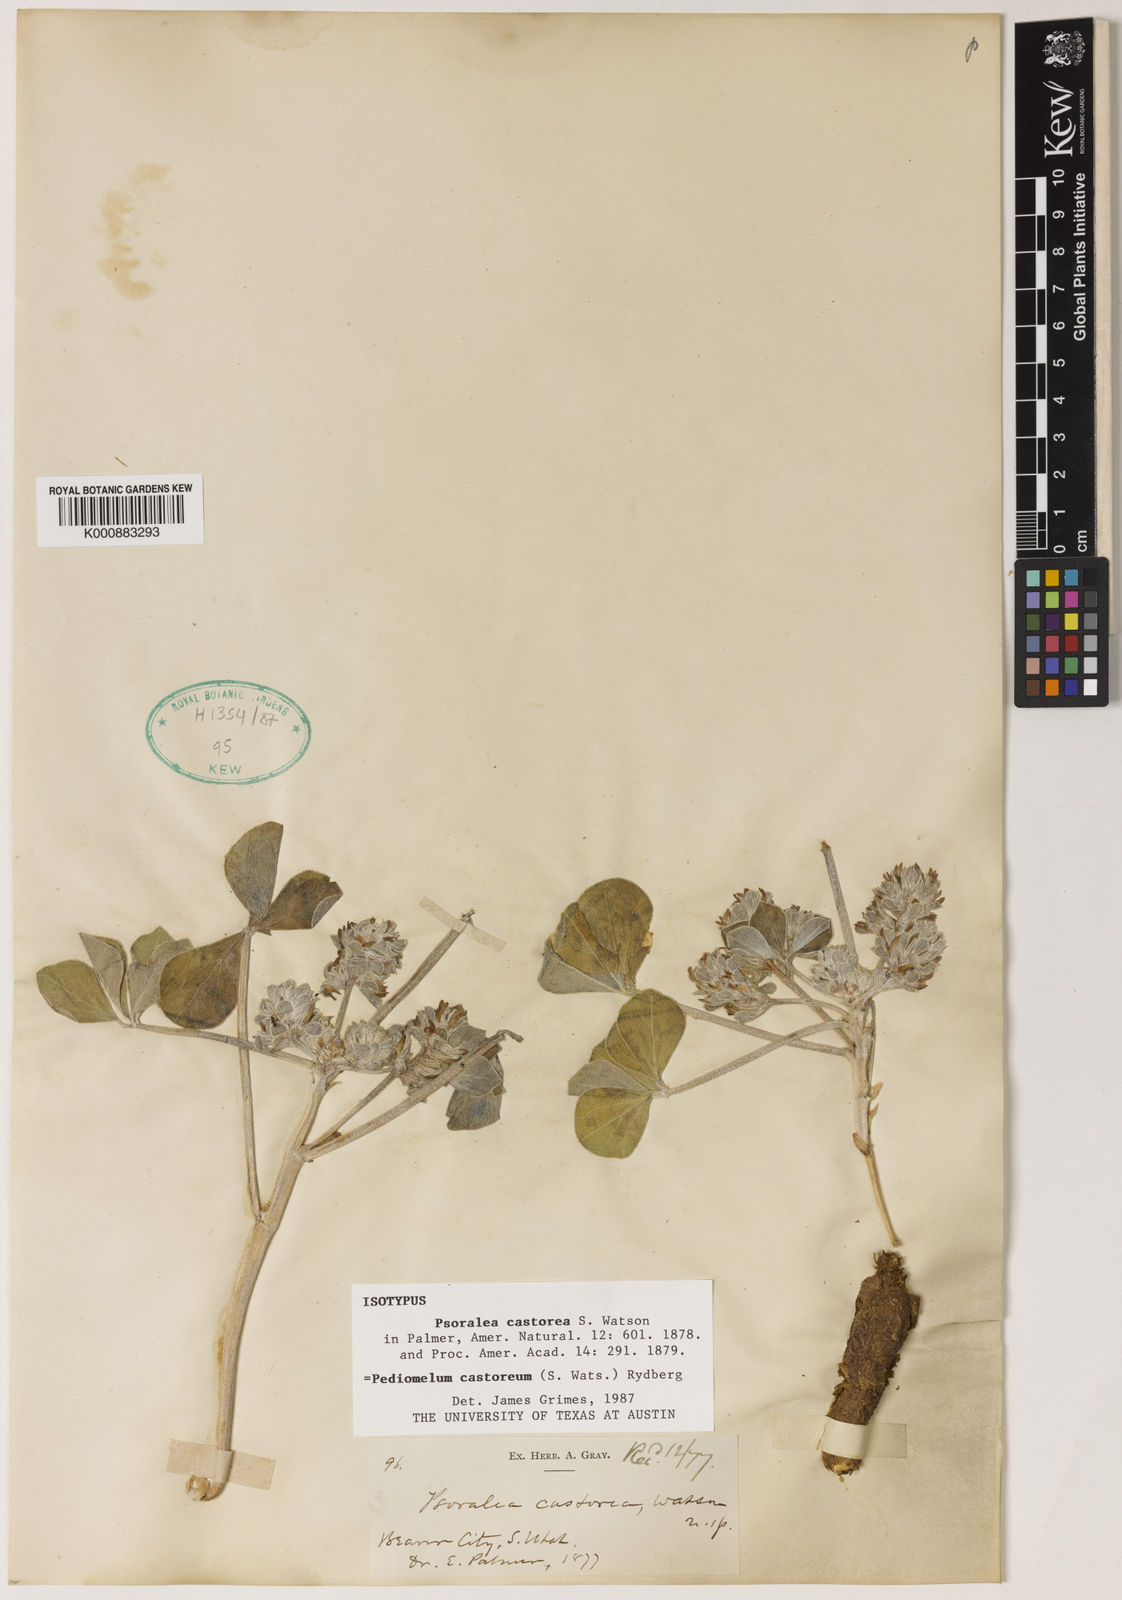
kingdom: Plantae
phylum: Tracheophyta
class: Magnoliopsida
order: Fabales
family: Fabaceae
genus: Pediomelum
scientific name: Pediomelum castoreum
